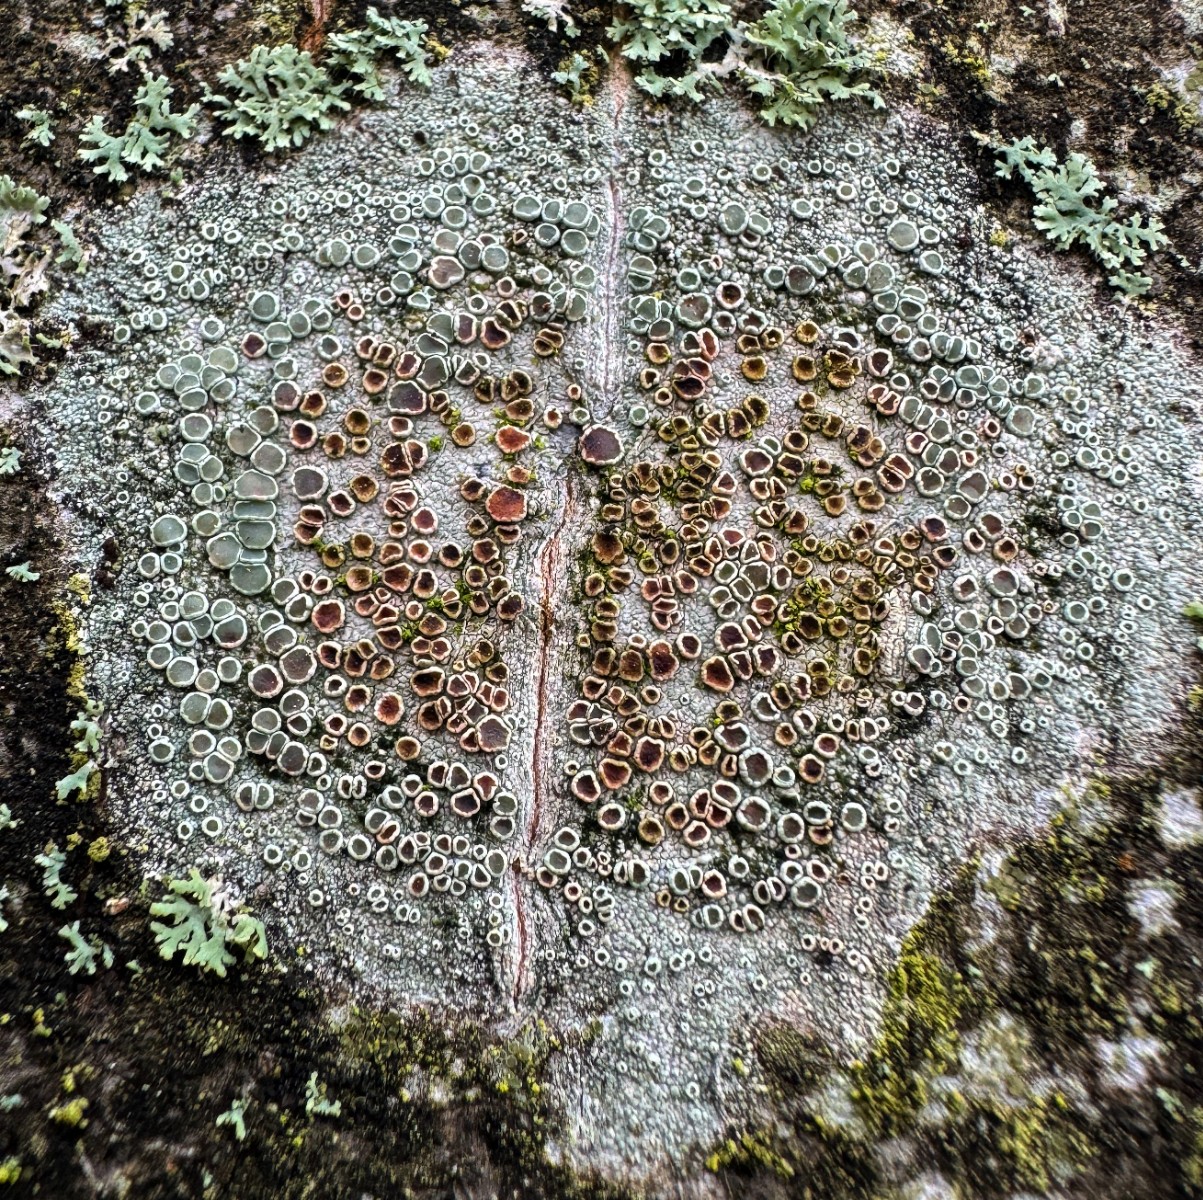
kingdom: Fungi
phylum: Ascomycota
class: Lecanoromycetes
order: Lecanorales
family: Lecanoraceae
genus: Lecanora
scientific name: Lecanora chlarotera
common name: brun kantskivelav
